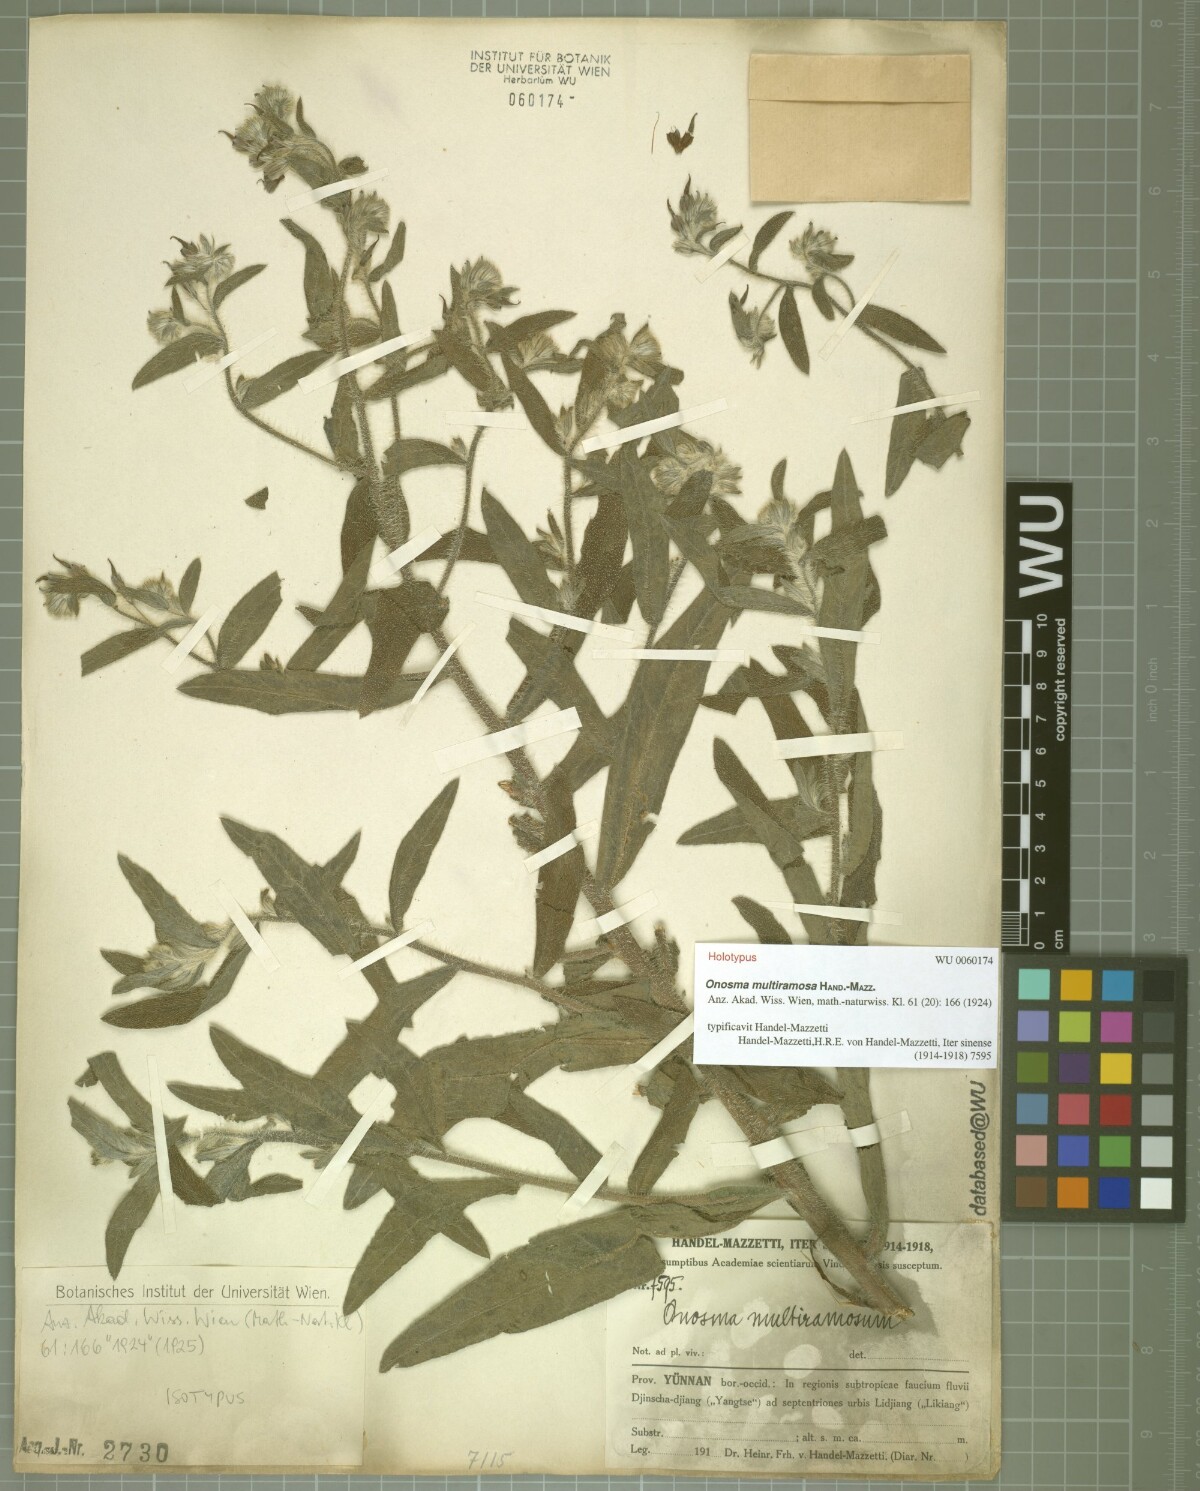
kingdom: Plantae
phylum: Tracheophyta
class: Magnoliopsida
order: Boraginales
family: Boraginaceae
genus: Maharanga
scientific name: Maharanga multiramosa
